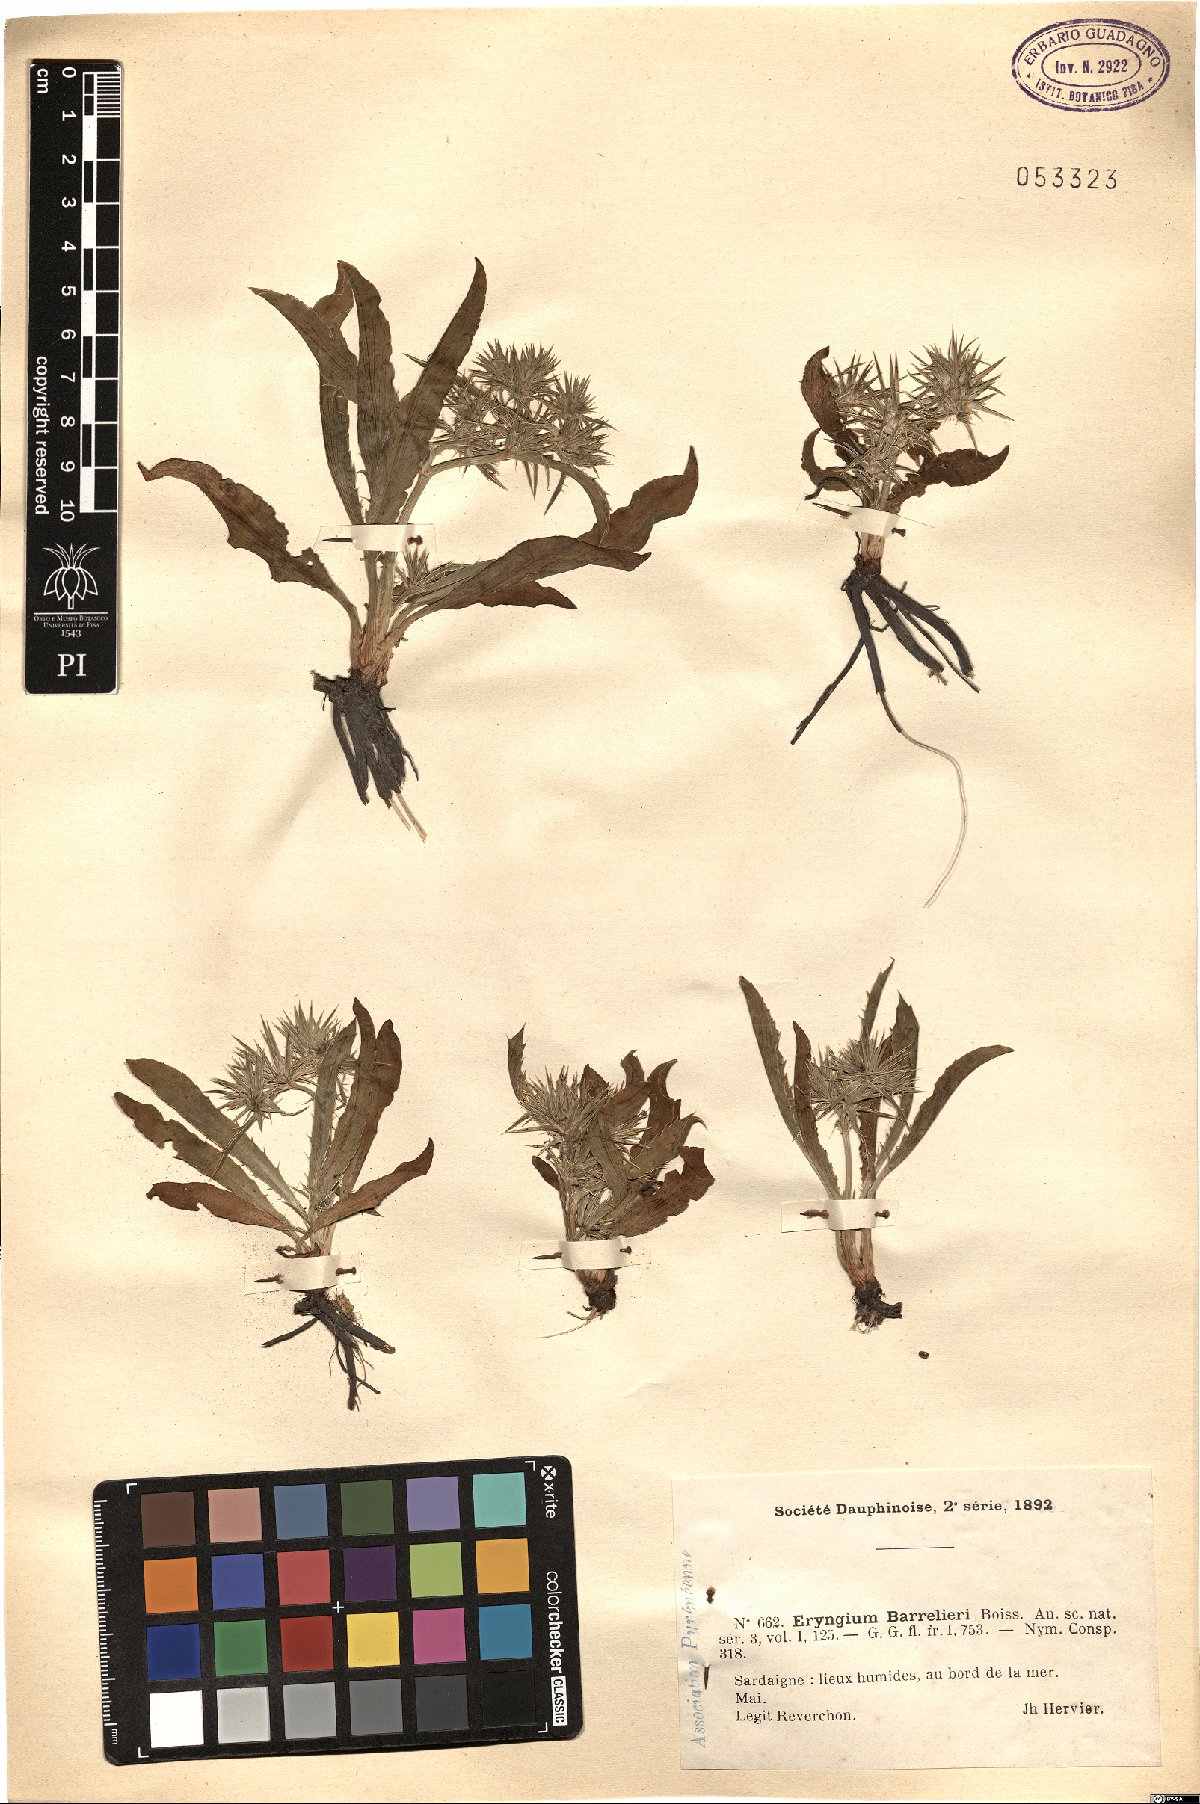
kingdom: Plantae
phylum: Tracheophyta
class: Magnoliopsida
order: Apiales
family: Apiaceae
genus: Eryngium
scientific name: Eryngium pusillum
